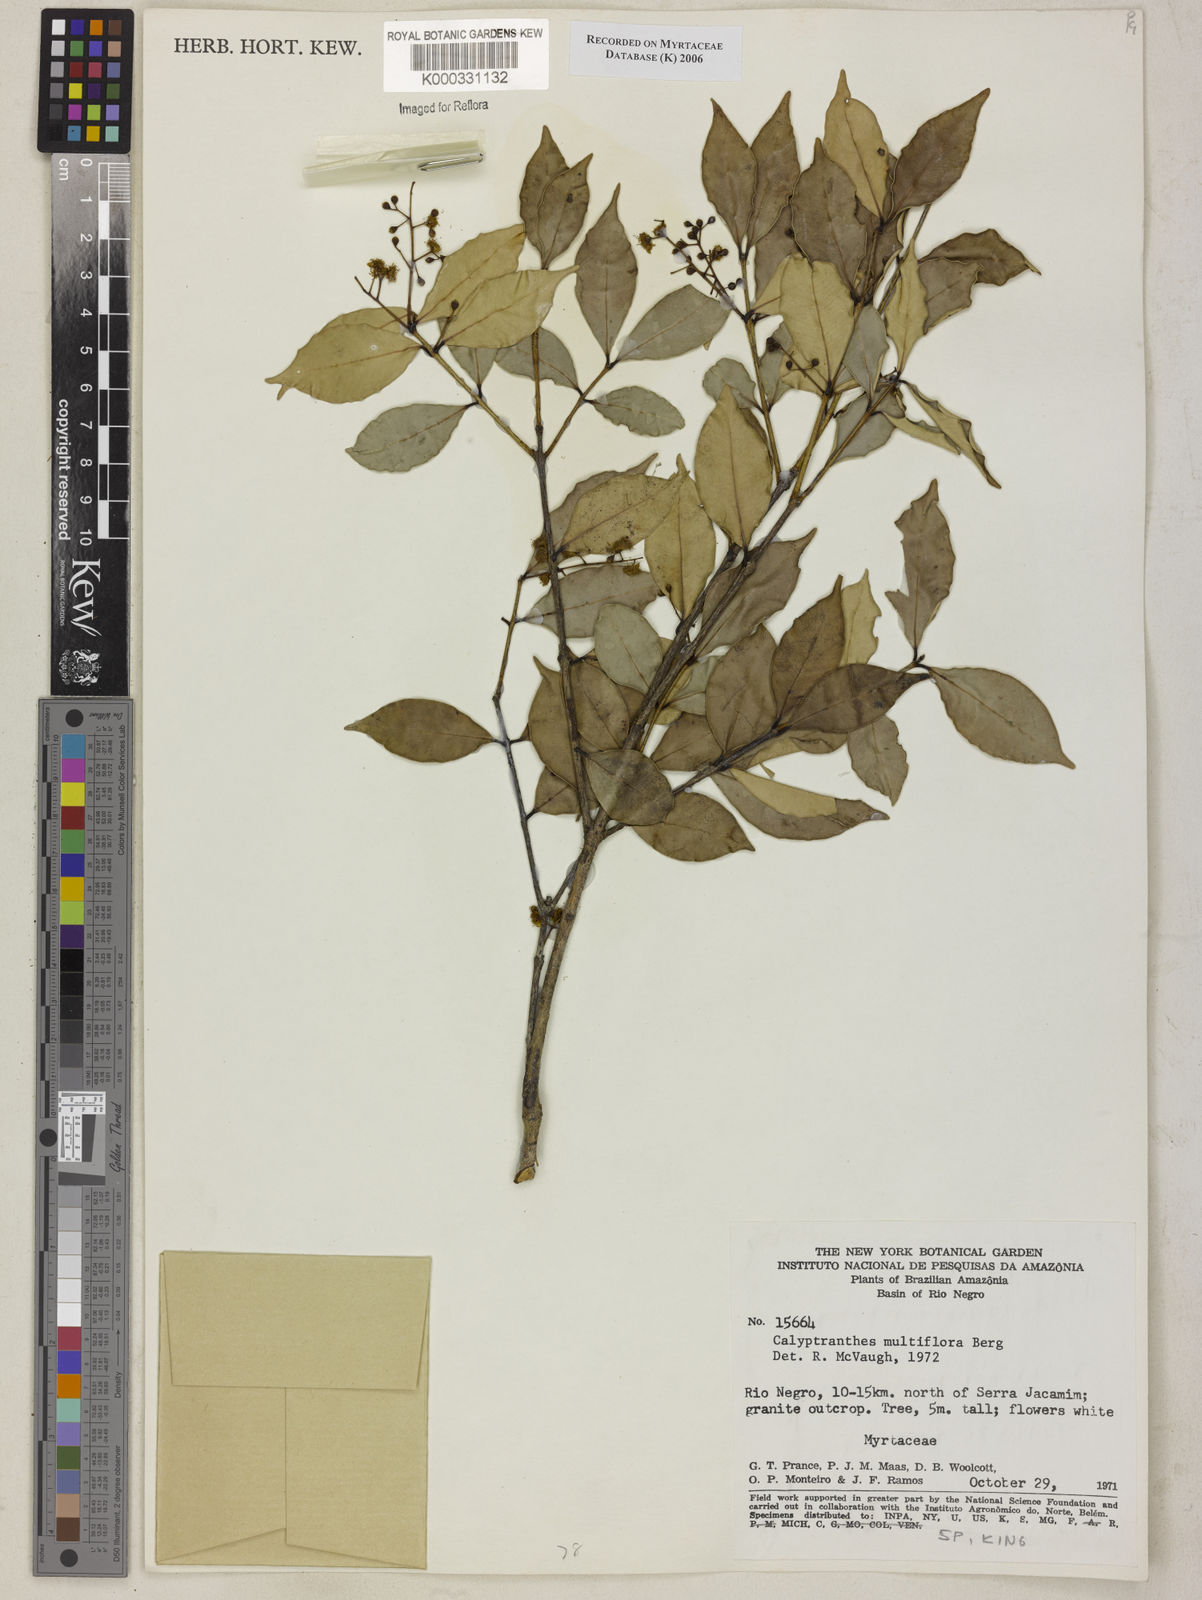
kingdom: Plantae
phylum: Tracheophyta
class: Magnoliopsida
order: Myrtales
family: Myrtaceae
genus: Myrcia
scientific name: Myrcia aulomyrcioides
